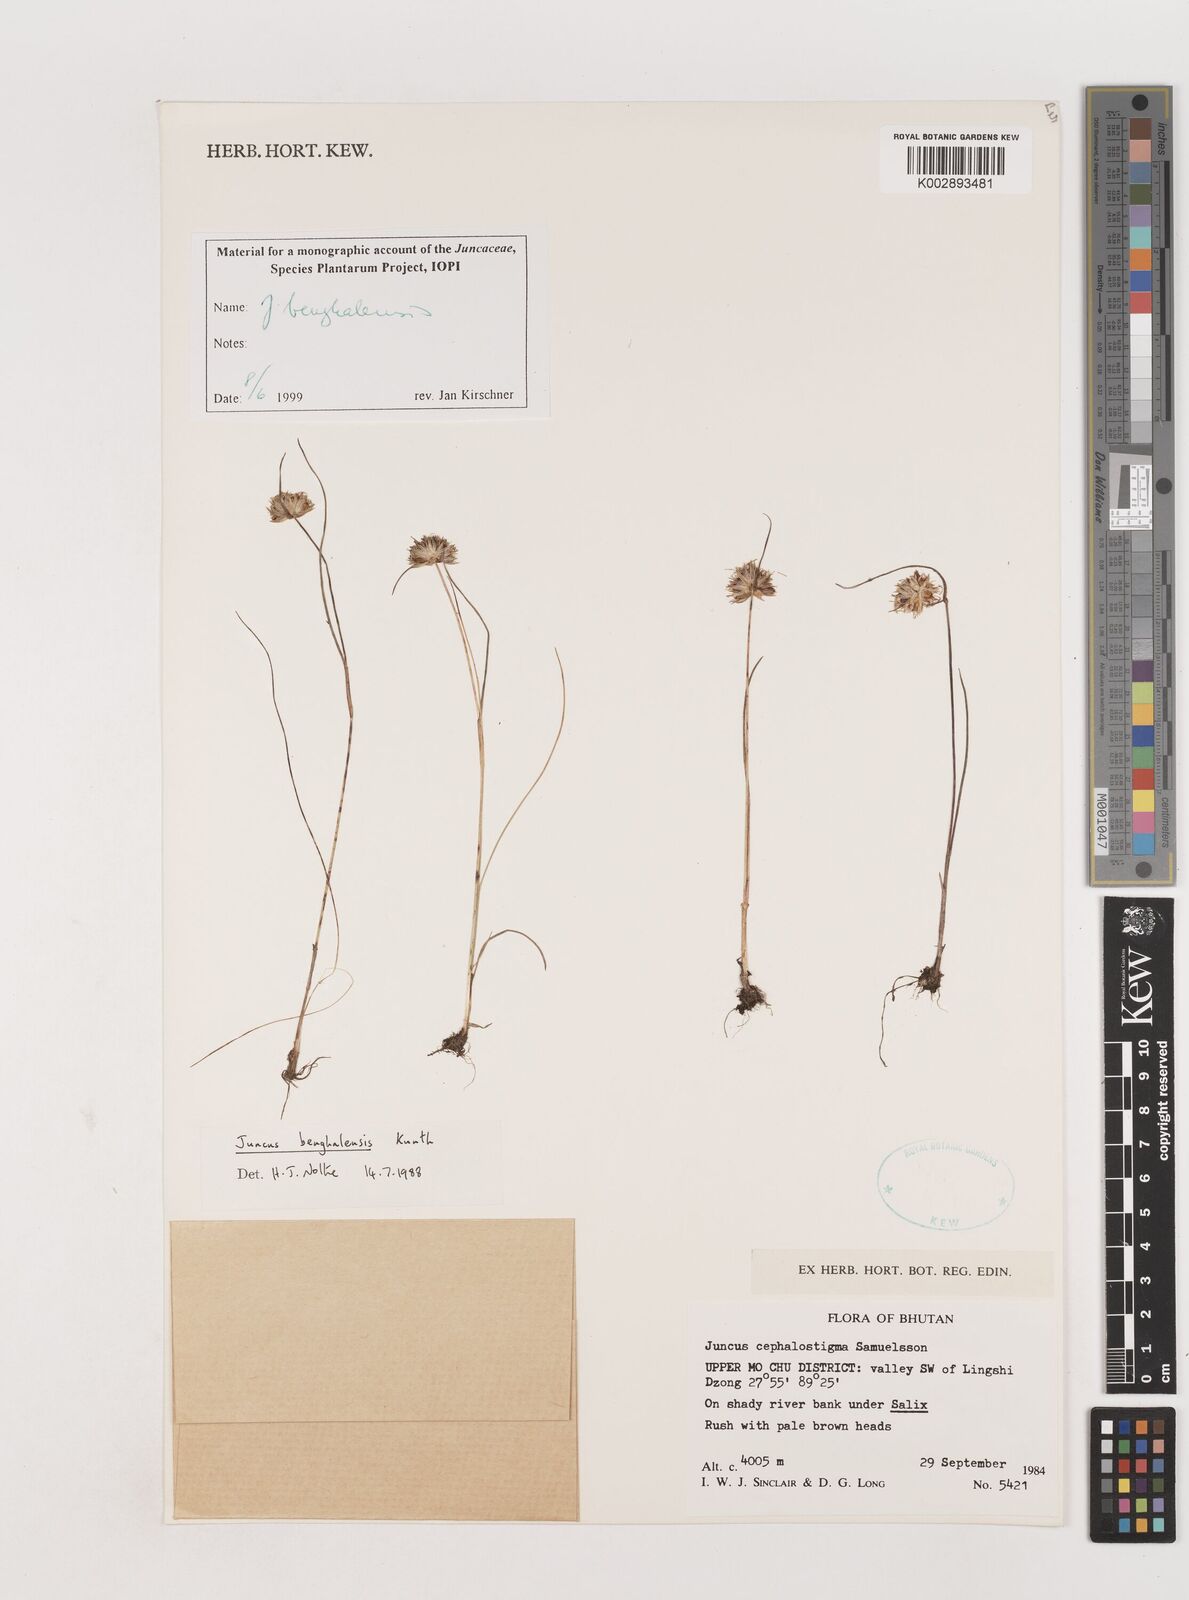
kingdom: Plantae
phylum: Tracheophyta
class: Liliopsida
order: Poales
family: Juncaceae
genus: Juncus
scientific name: Juncus benghalensis
